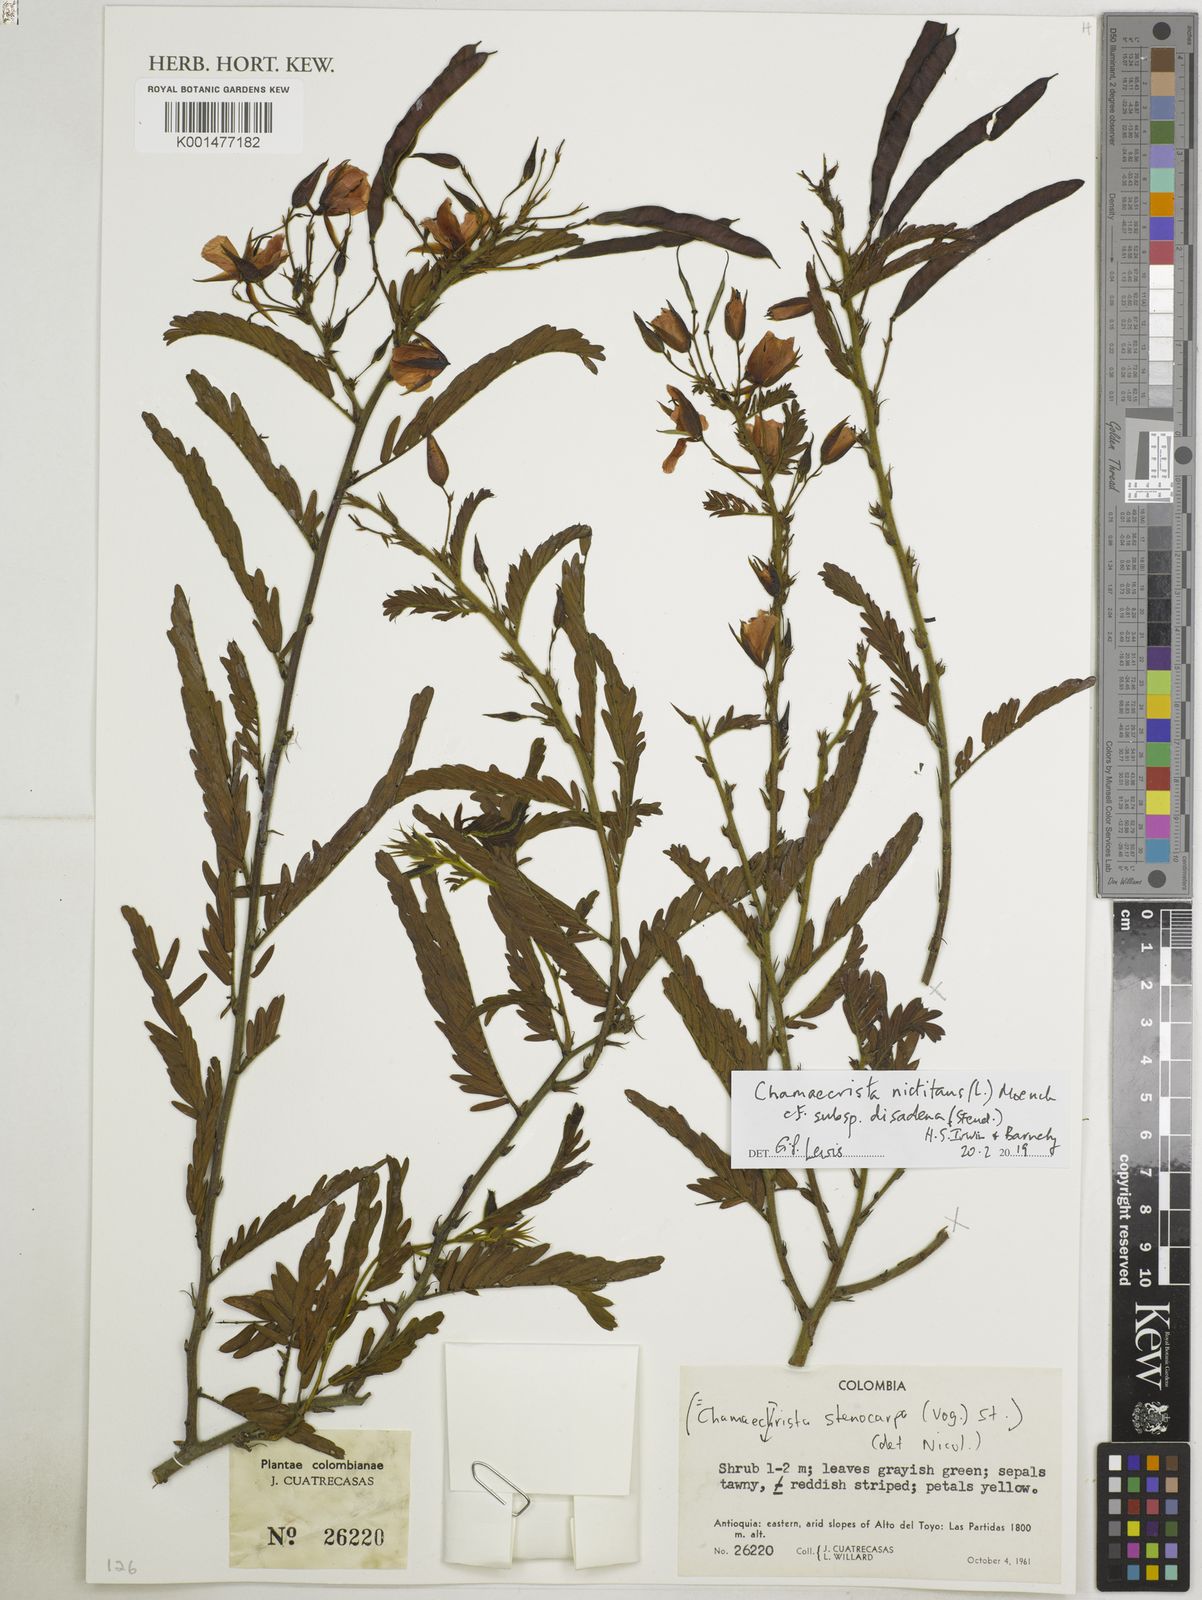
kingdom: Plantae
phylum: Tracheophyta
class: Magnoliopsida
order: Fabales
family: Fabaceae
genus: Chamaecrista
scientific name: Chamaecrista nictitans
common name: Sensitive cassia
